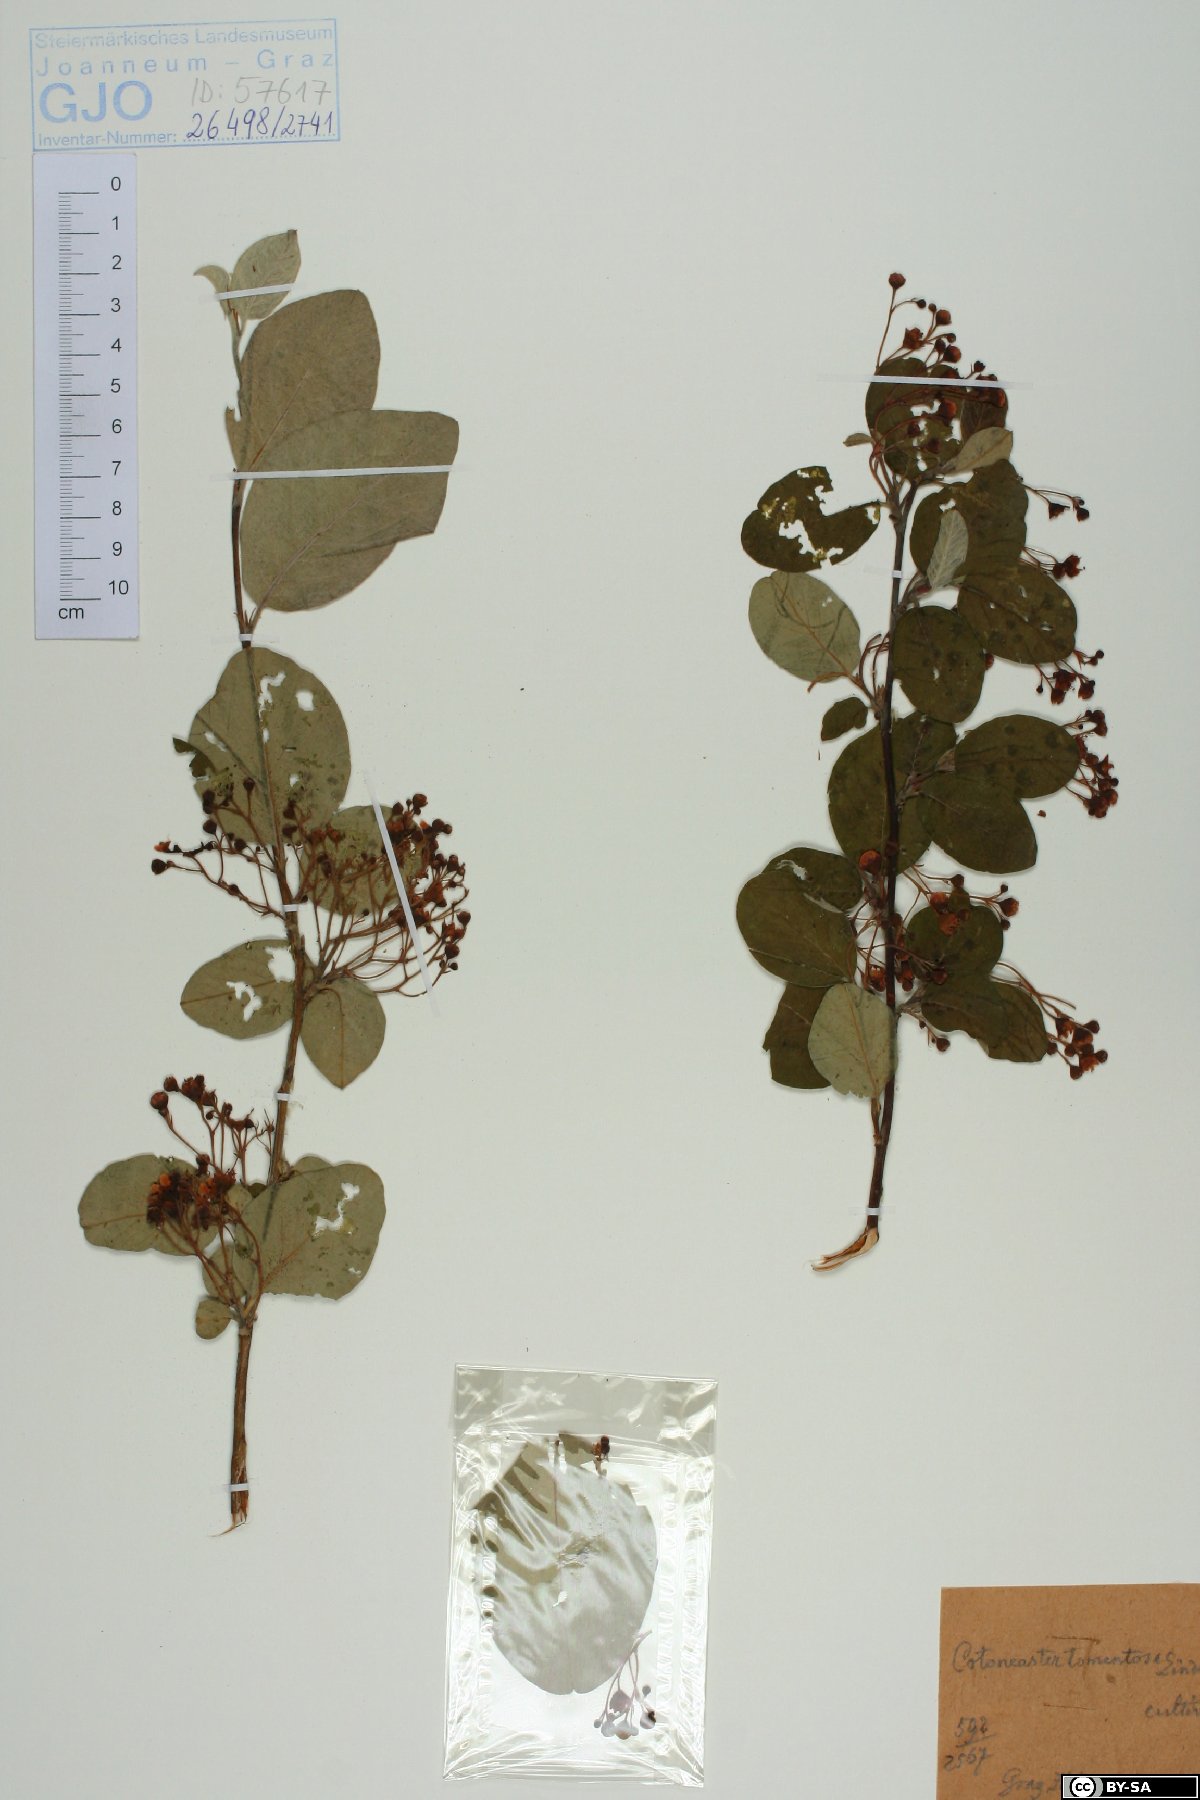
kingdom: Plantae
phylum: Tracheophyta
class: Magnoliopsida
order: Rosales
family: Rosaceae
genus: Cotoneaster
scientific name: Cotoneaster tomentosus
